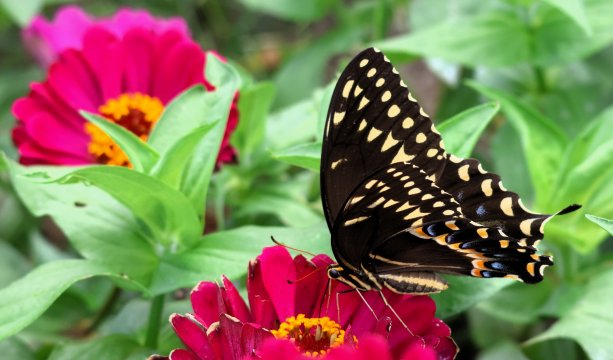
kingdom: Animalia
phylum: Arthropoda
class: Insecta
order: Lepidoptera
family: Papilionidae
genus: Pterourus
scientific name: Pterourus palamedes
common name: Palamedes Swallowtail
